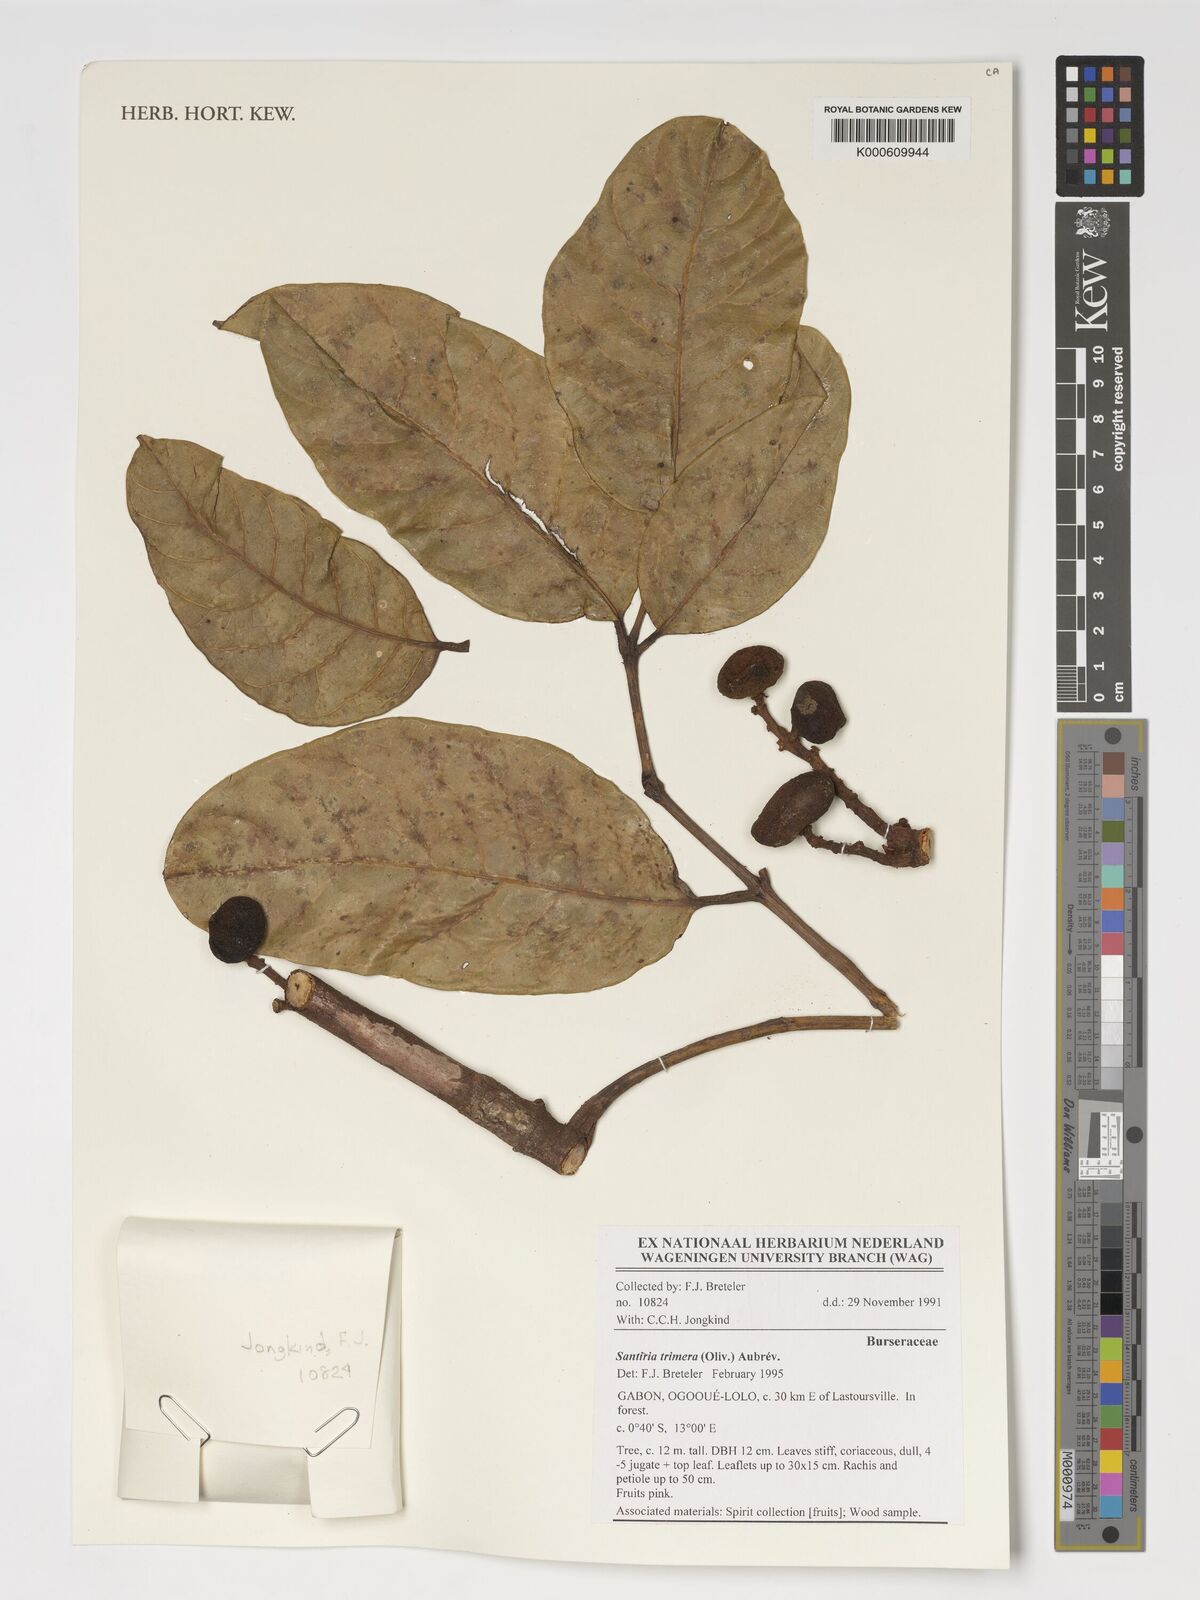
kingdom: Plantae
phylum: Tracheophyta
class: Magnoliopsida
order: Sapindales
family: Burseraceae
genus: Pachylobus
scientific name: Pachylobus trimerus
